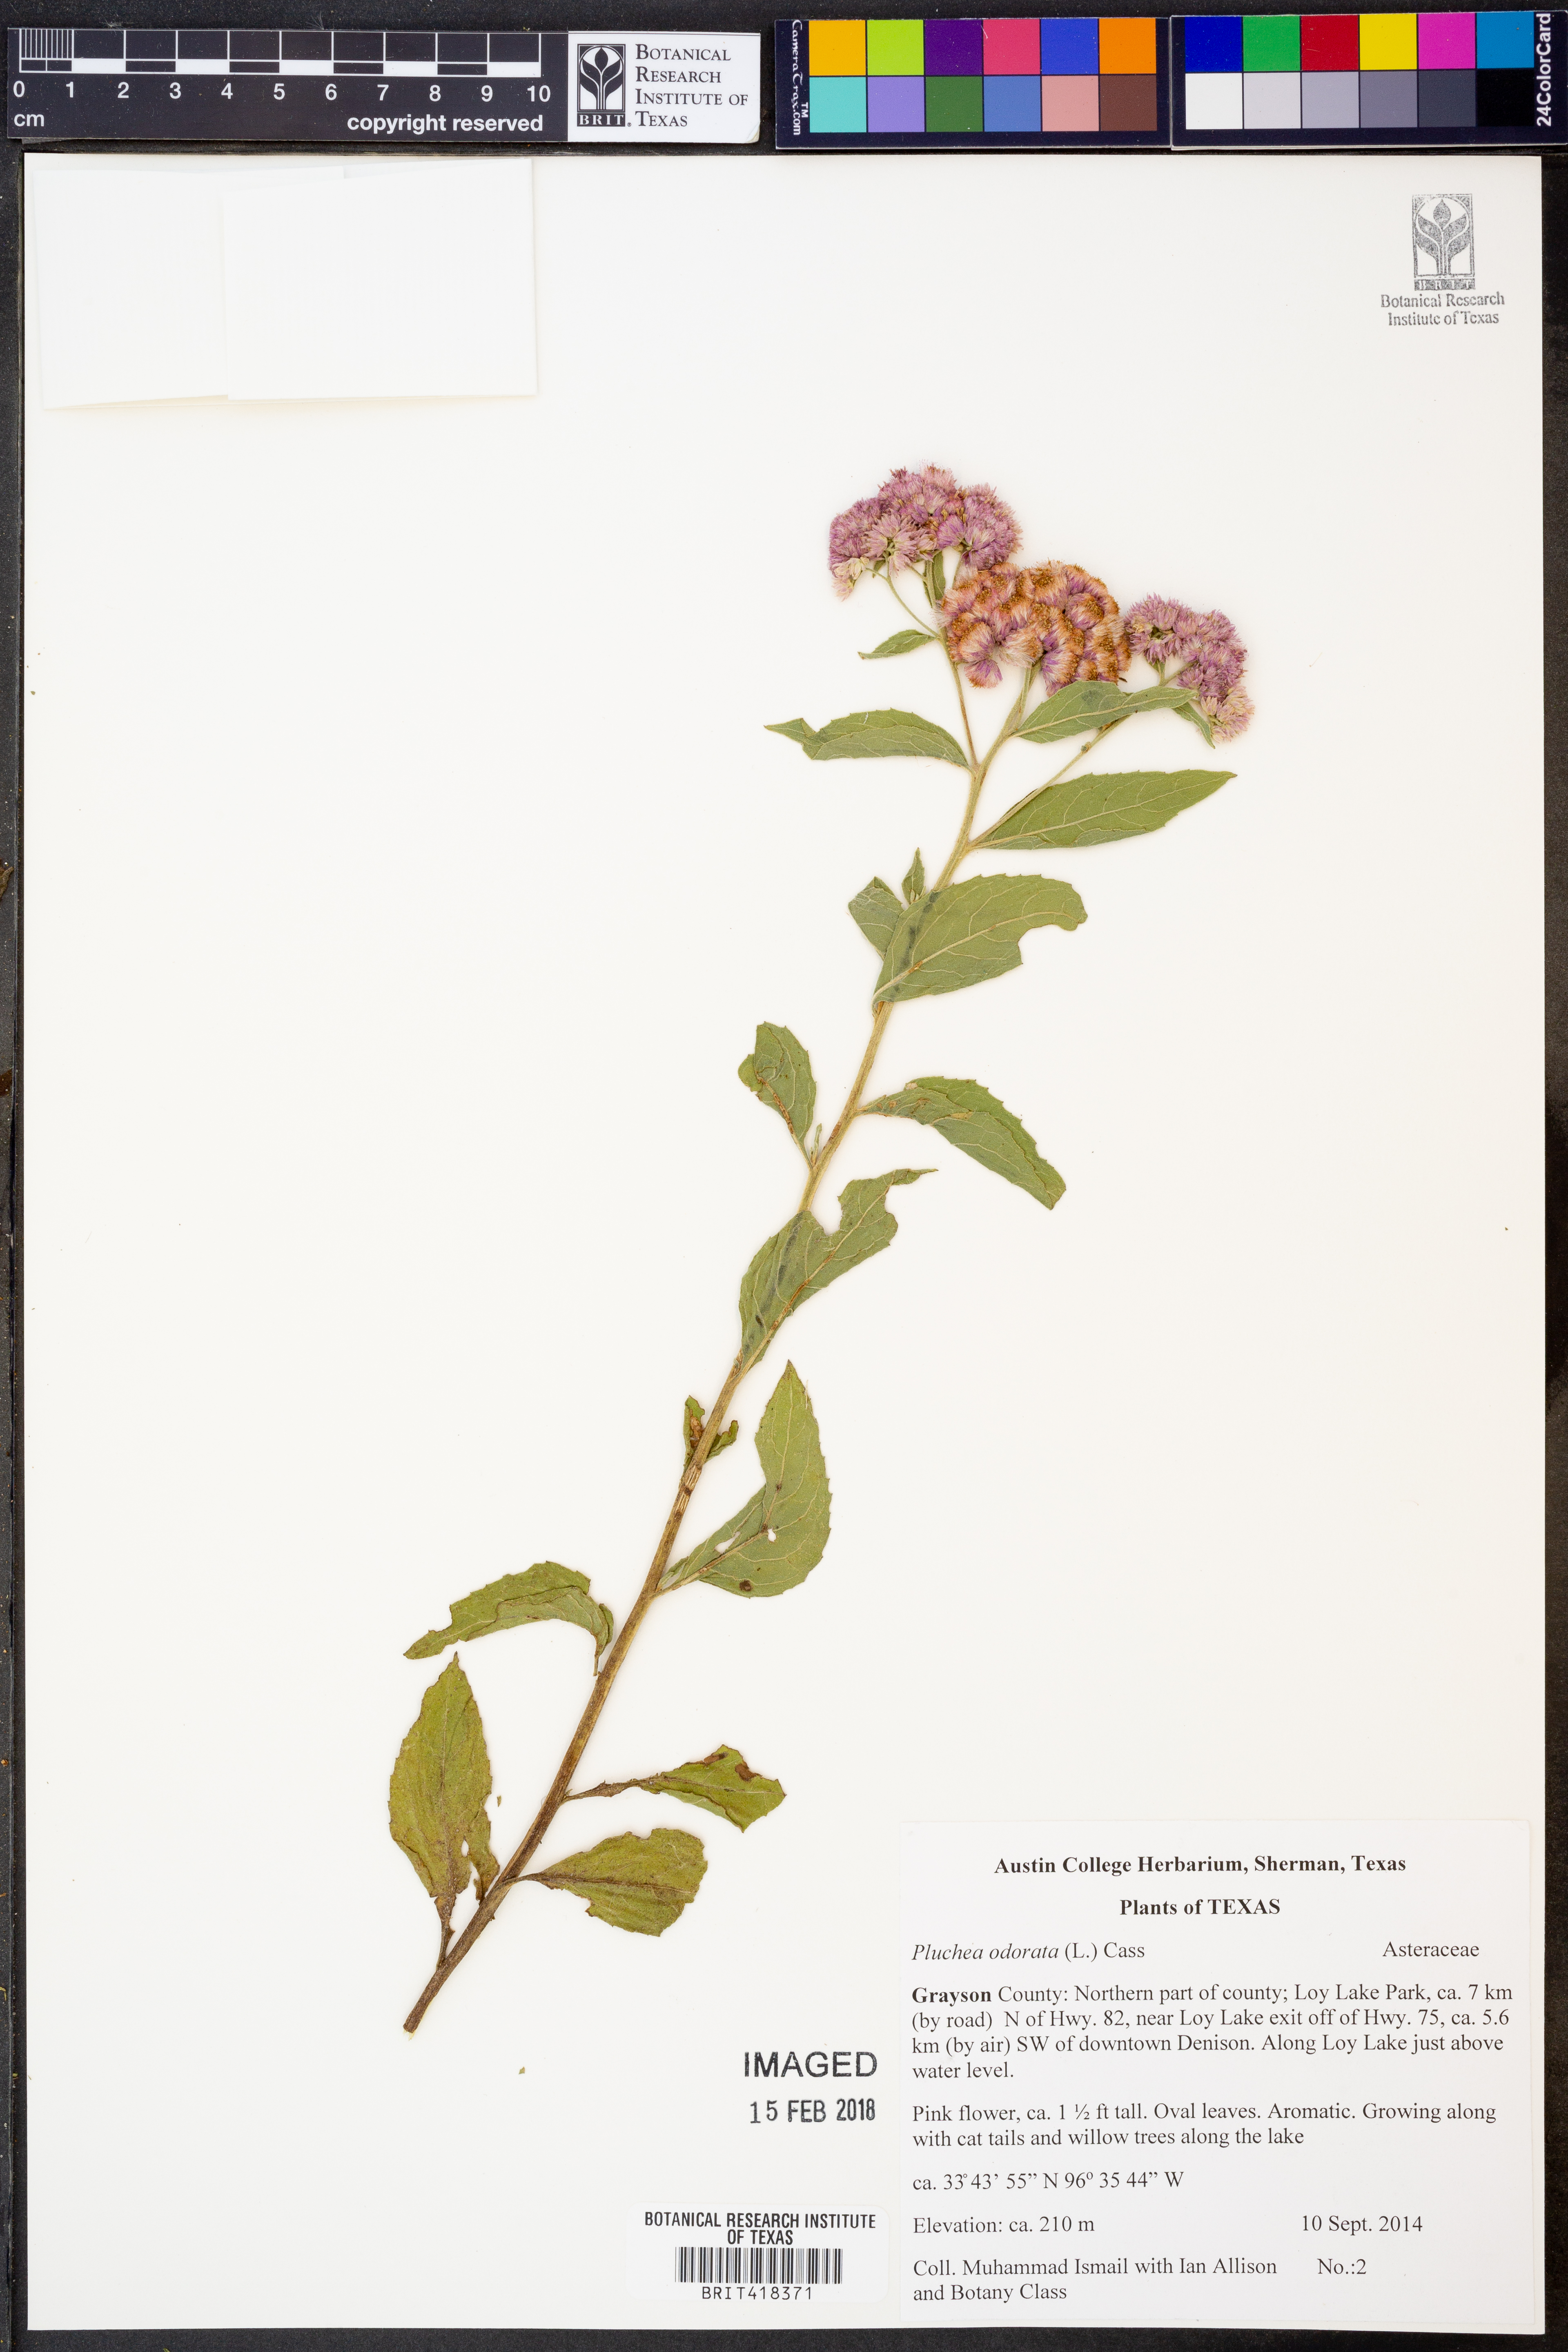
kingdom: Plantae
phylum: Tracheophyta
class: Magnoliopsida
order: Asterales
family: Asteraceae
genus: Pluchea
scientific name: Pluchea odorata
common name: Saltmarsh fleabane
